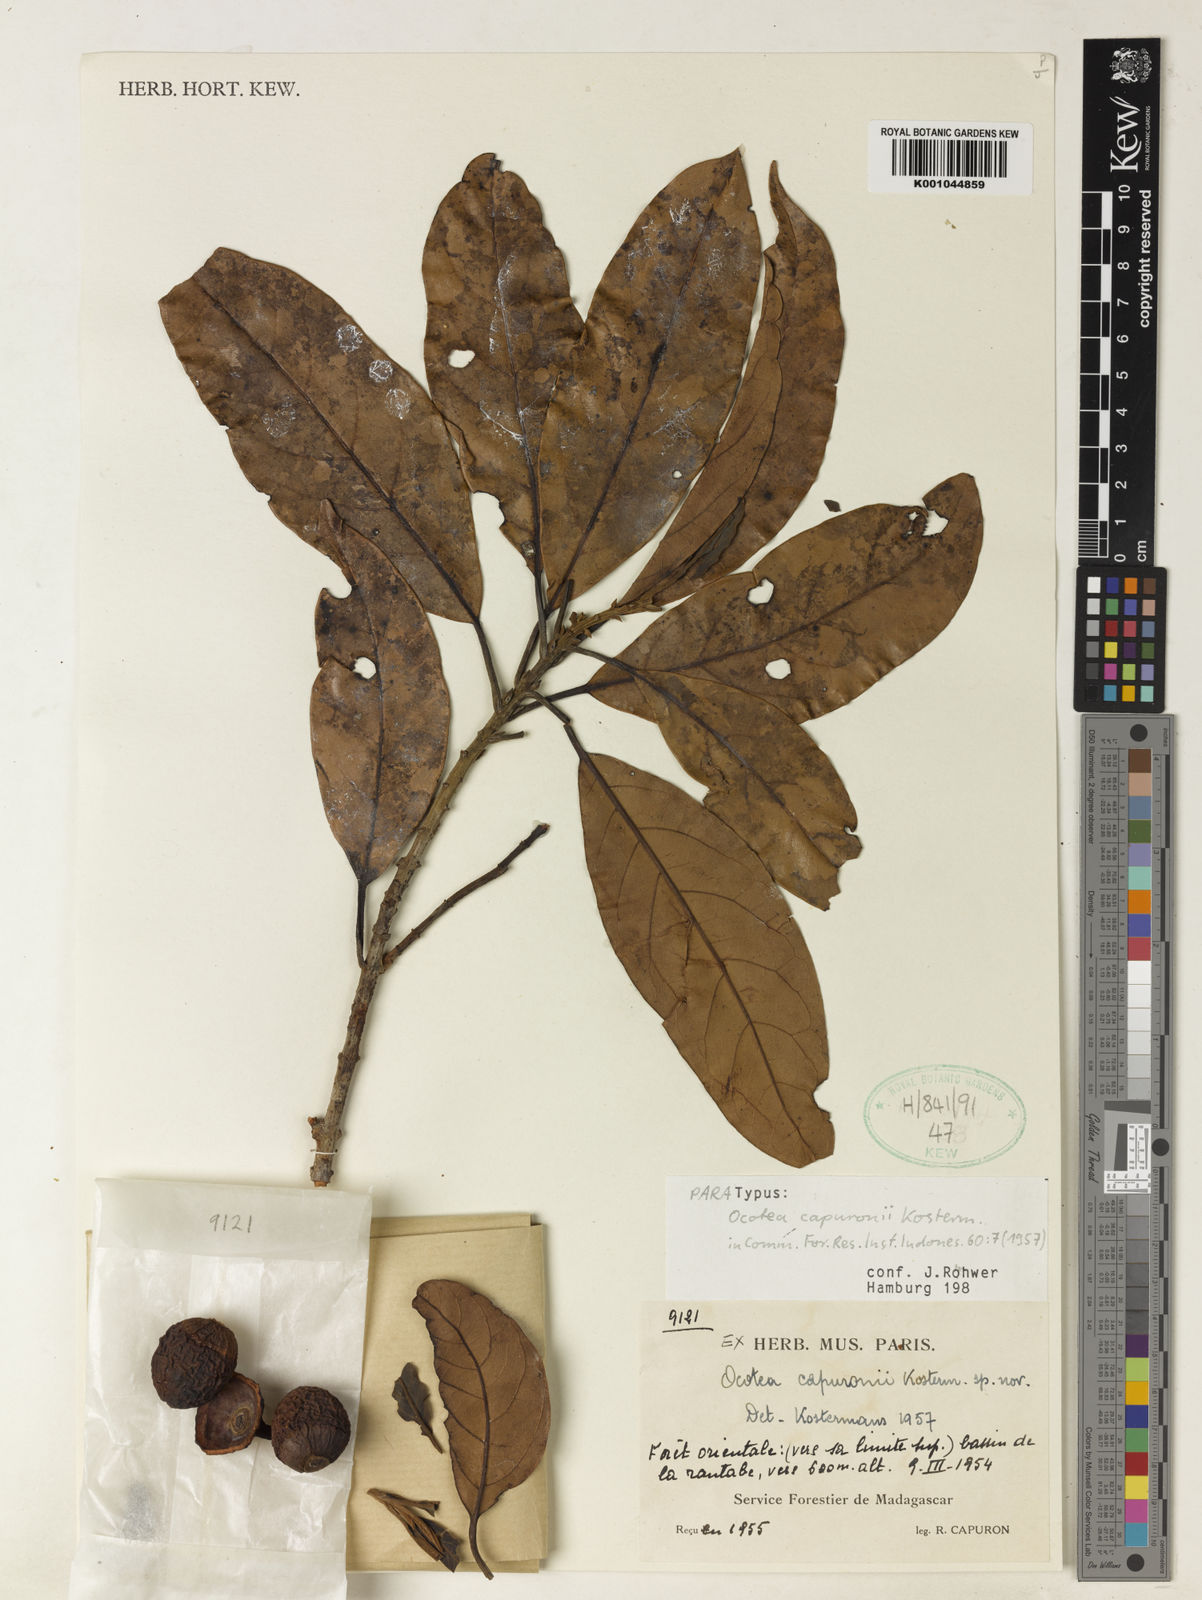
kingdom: Plantae
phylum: Tracheophyta
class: Magnoliopsida
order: Laurales
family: Lauraceae
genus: Mespilodaphne
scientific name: Mespilodaphne thouvenotii
